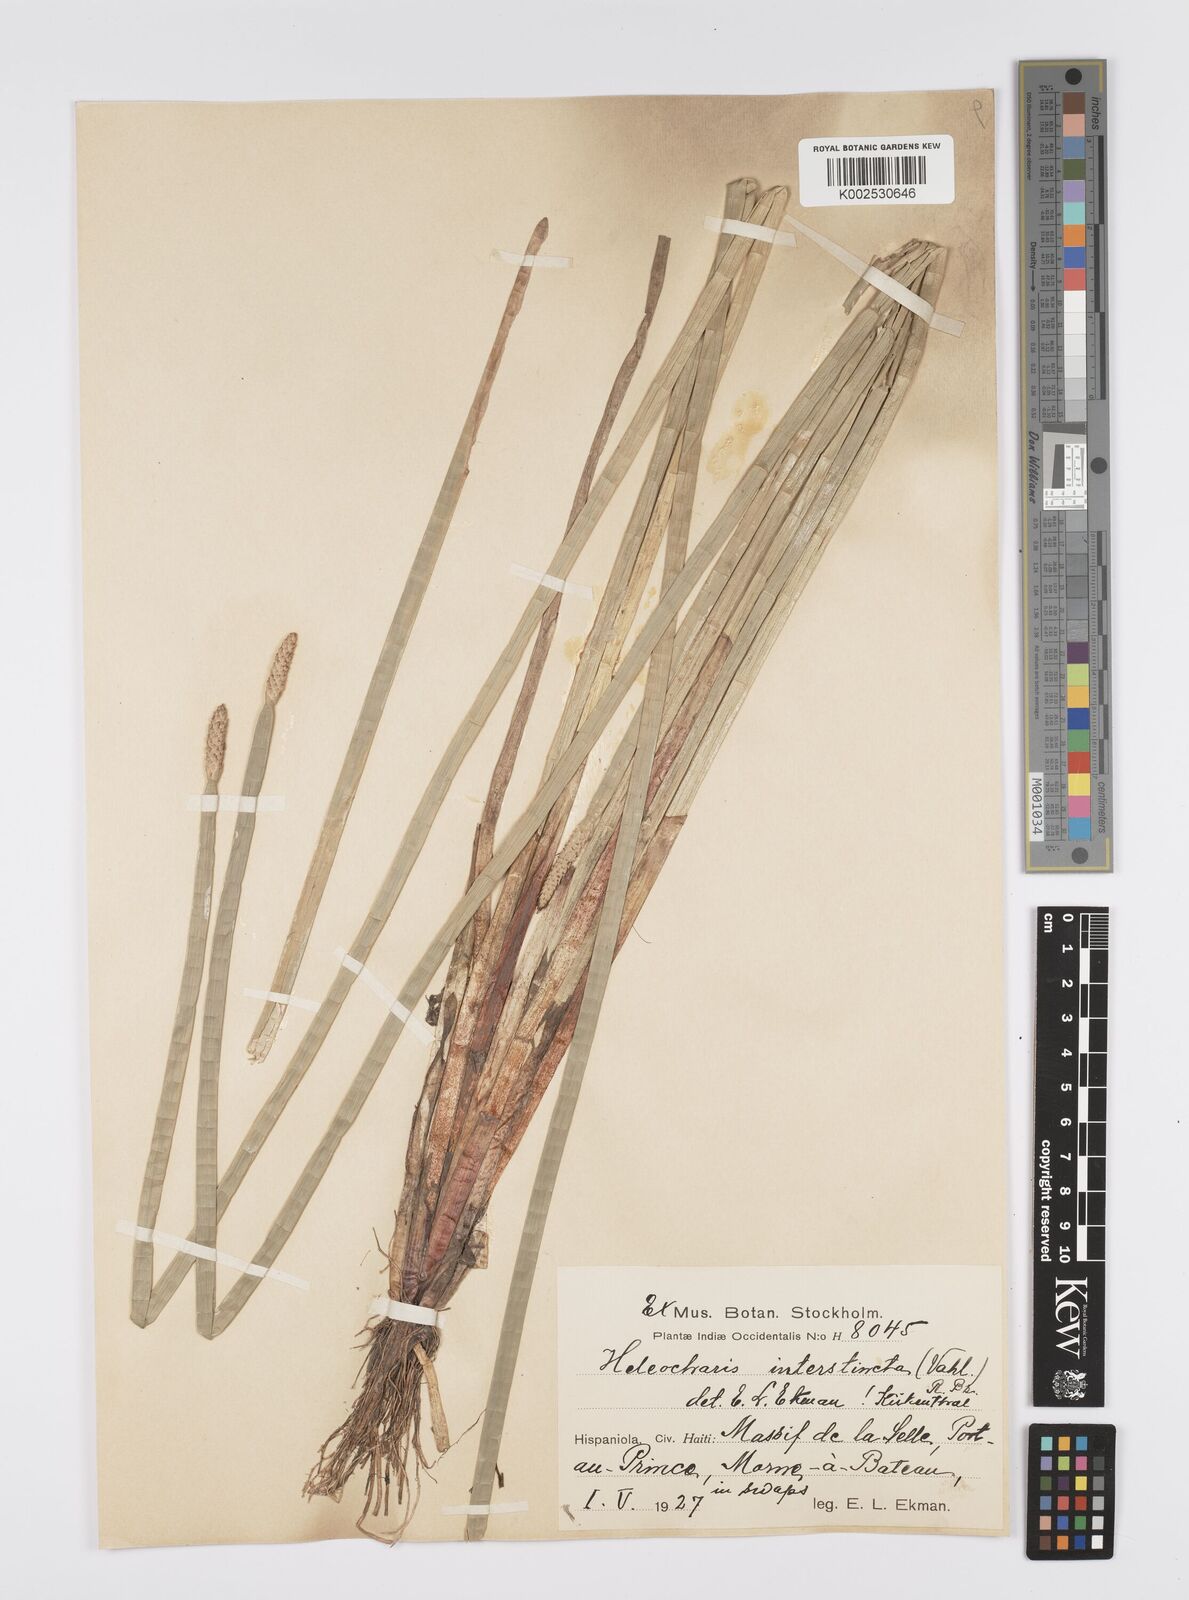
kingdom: Plantae
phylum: Tracheophyta
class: Liliopsida
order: Poales
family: Cyperaceae
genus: Eleocharis
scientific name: Eleocharis interstincta
